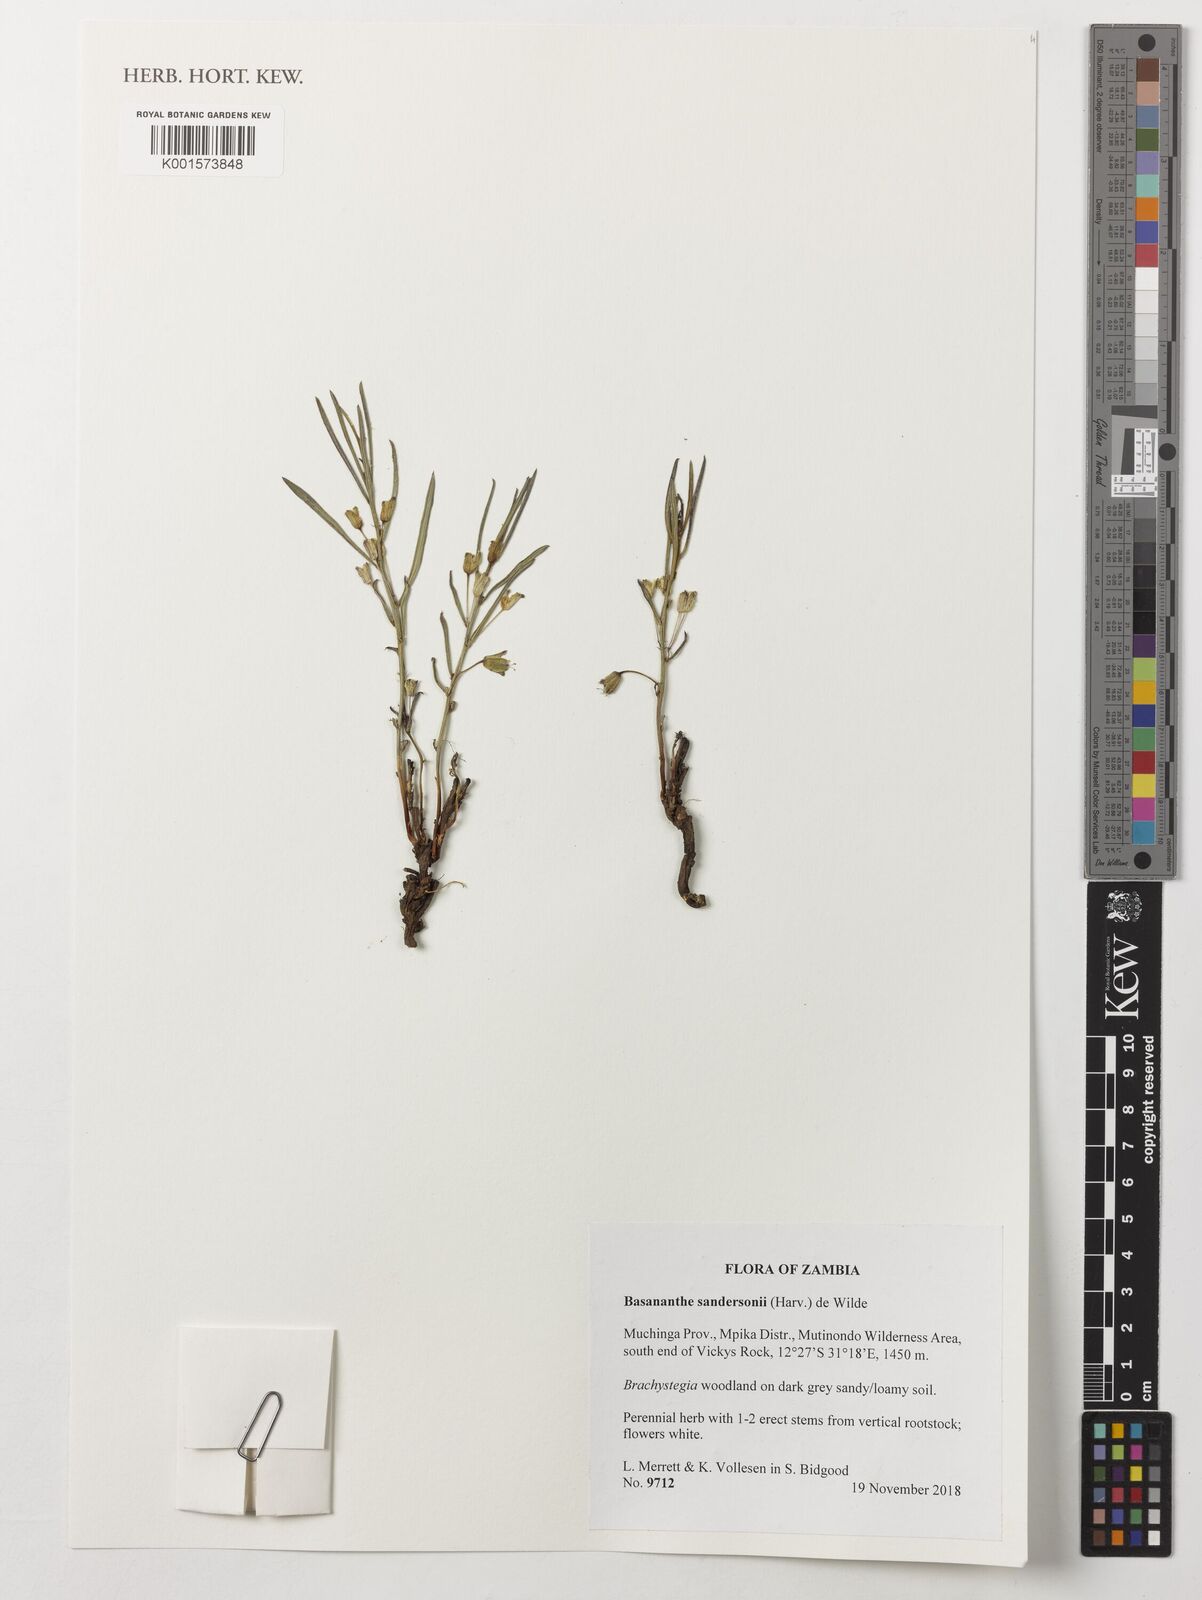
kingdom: Plantae
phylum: Tracheophyta
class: Magnoliopsida
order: Malpighiales
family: Passifloraceae
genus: Basananthe
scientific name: Basananthe sandersonii
